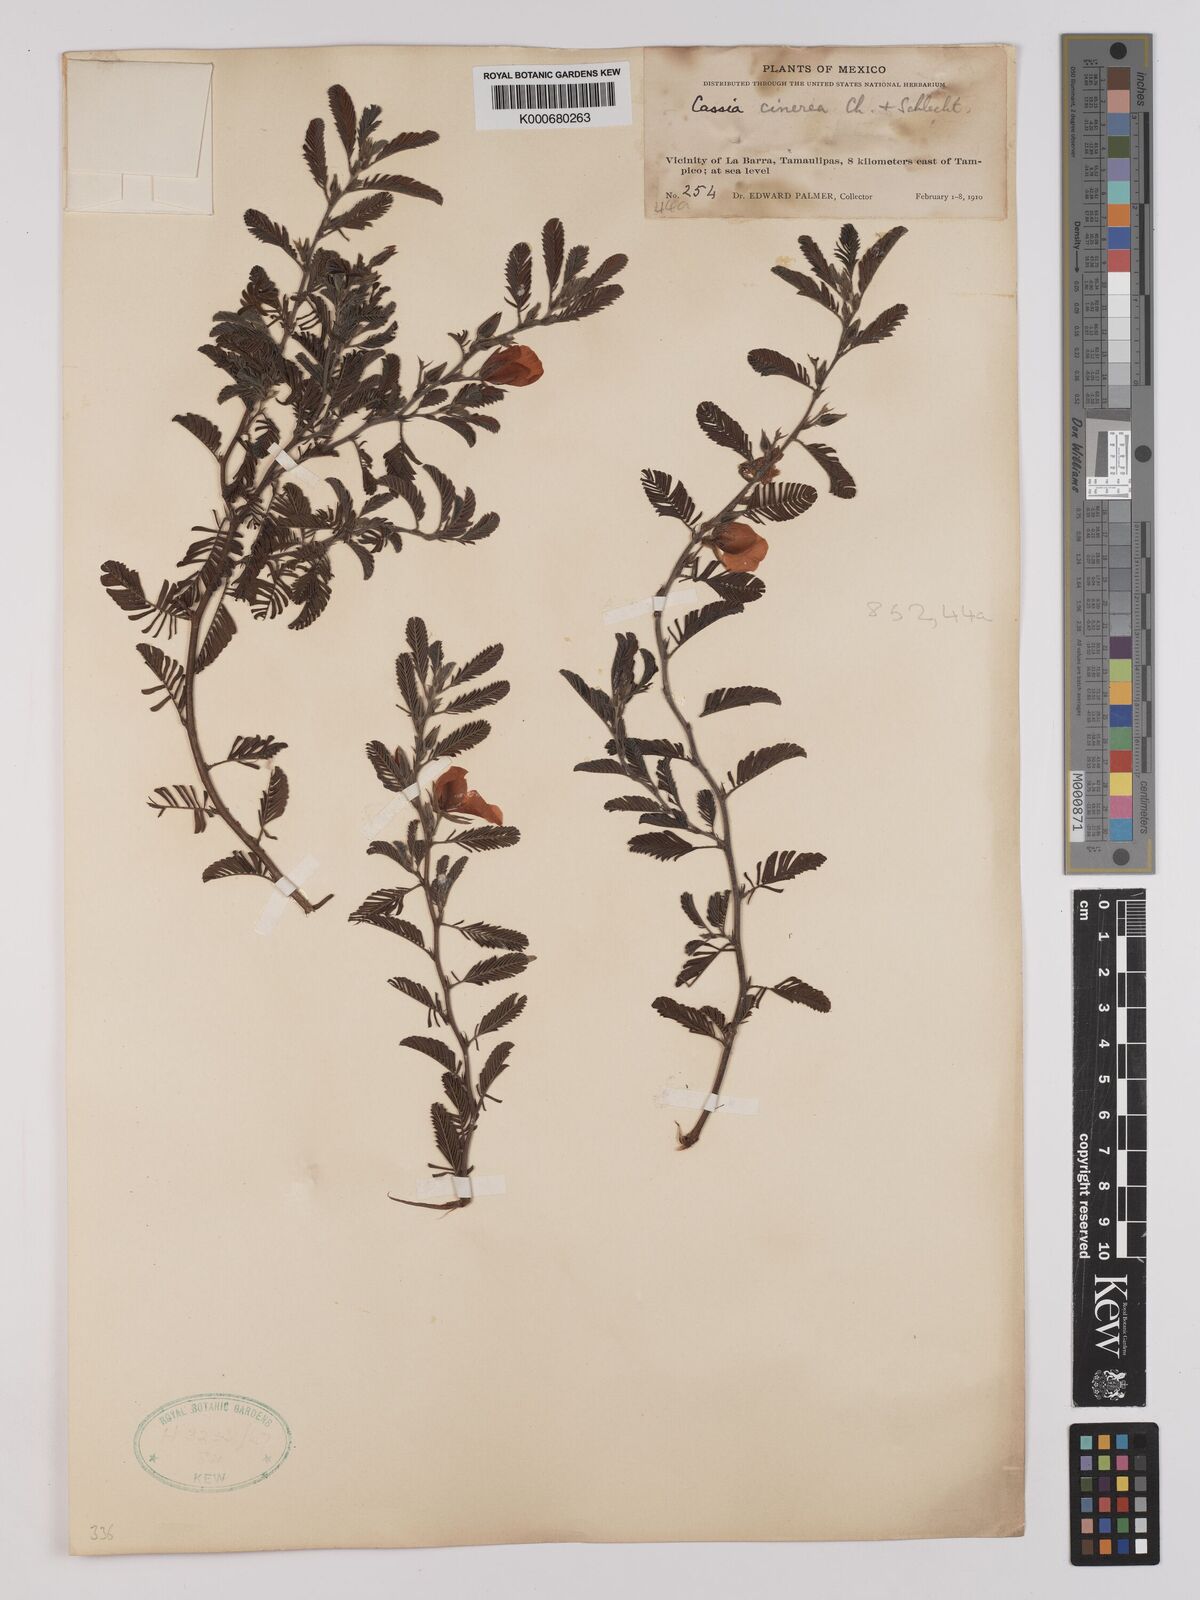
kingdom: Plantae
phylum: Tracheophyta
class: Magnoliopsida
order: Fabales
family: Fabaceae
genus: Chamaecrista
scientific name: Chamaecrista chamaecristoides
